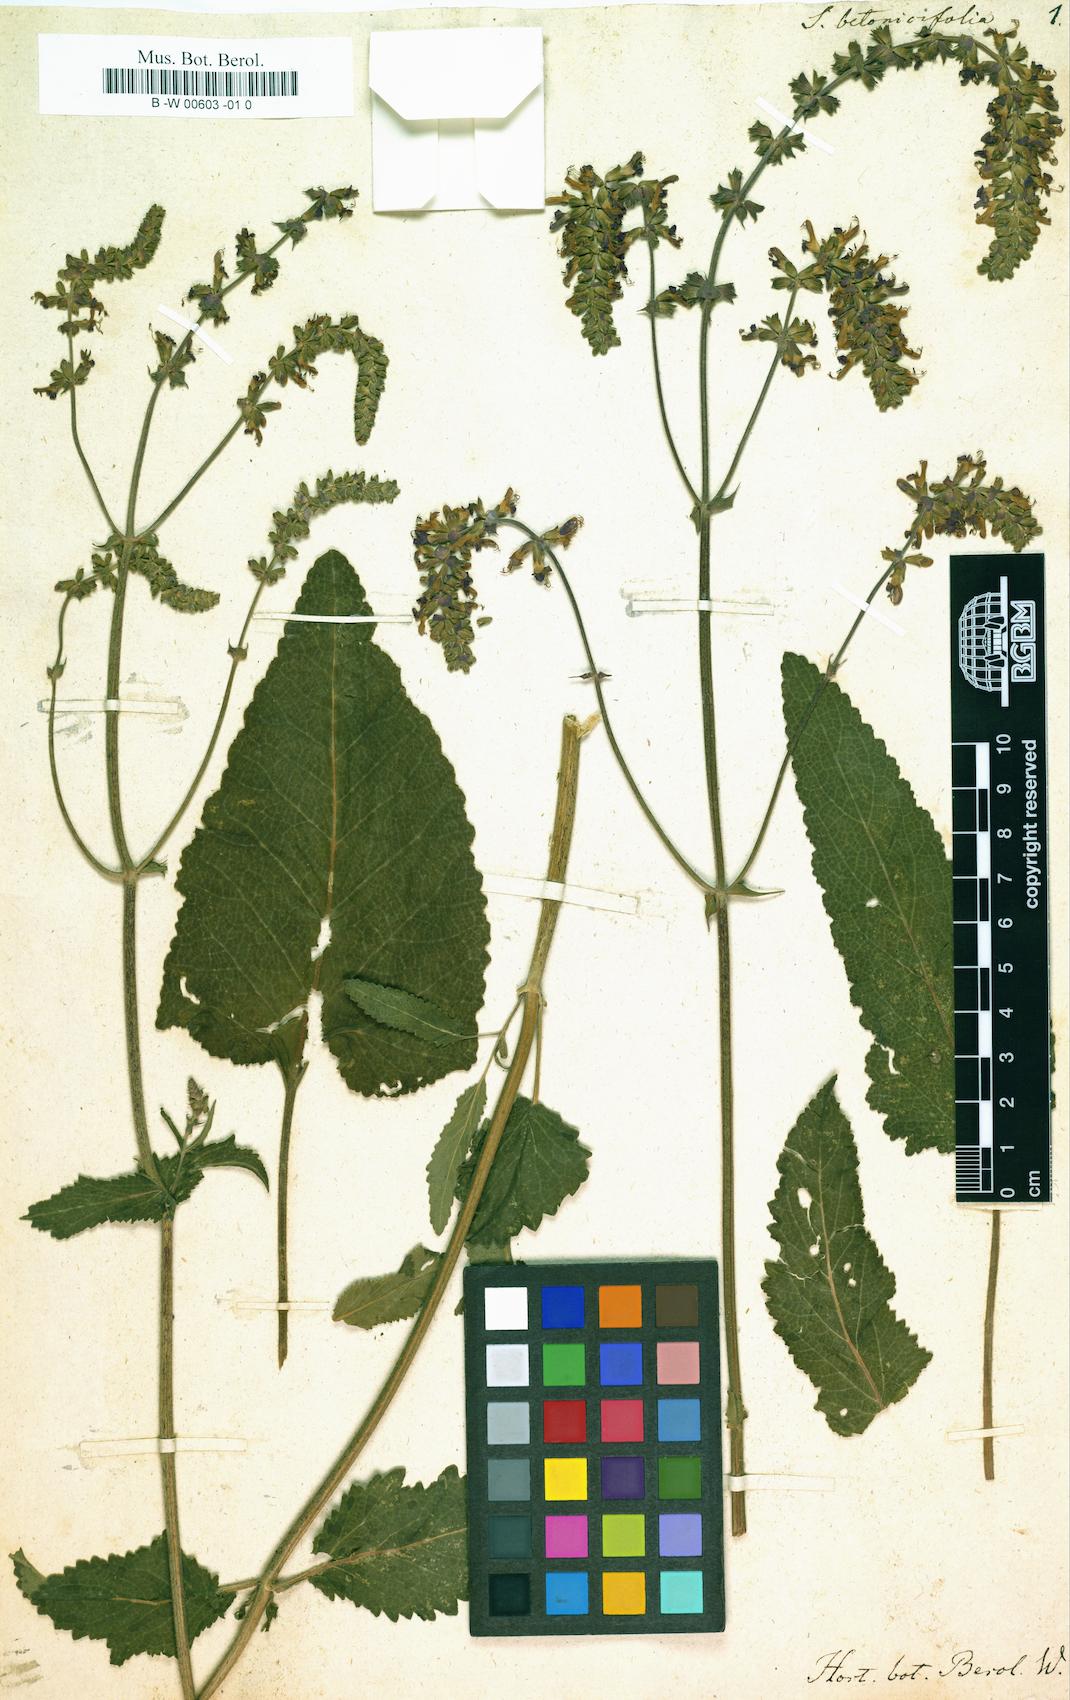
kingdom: Plantae
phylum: Tracheophyta
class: Magnoliopsida
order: Lamiales
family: Lamiaceae
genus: Salvia
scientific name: Salvia
